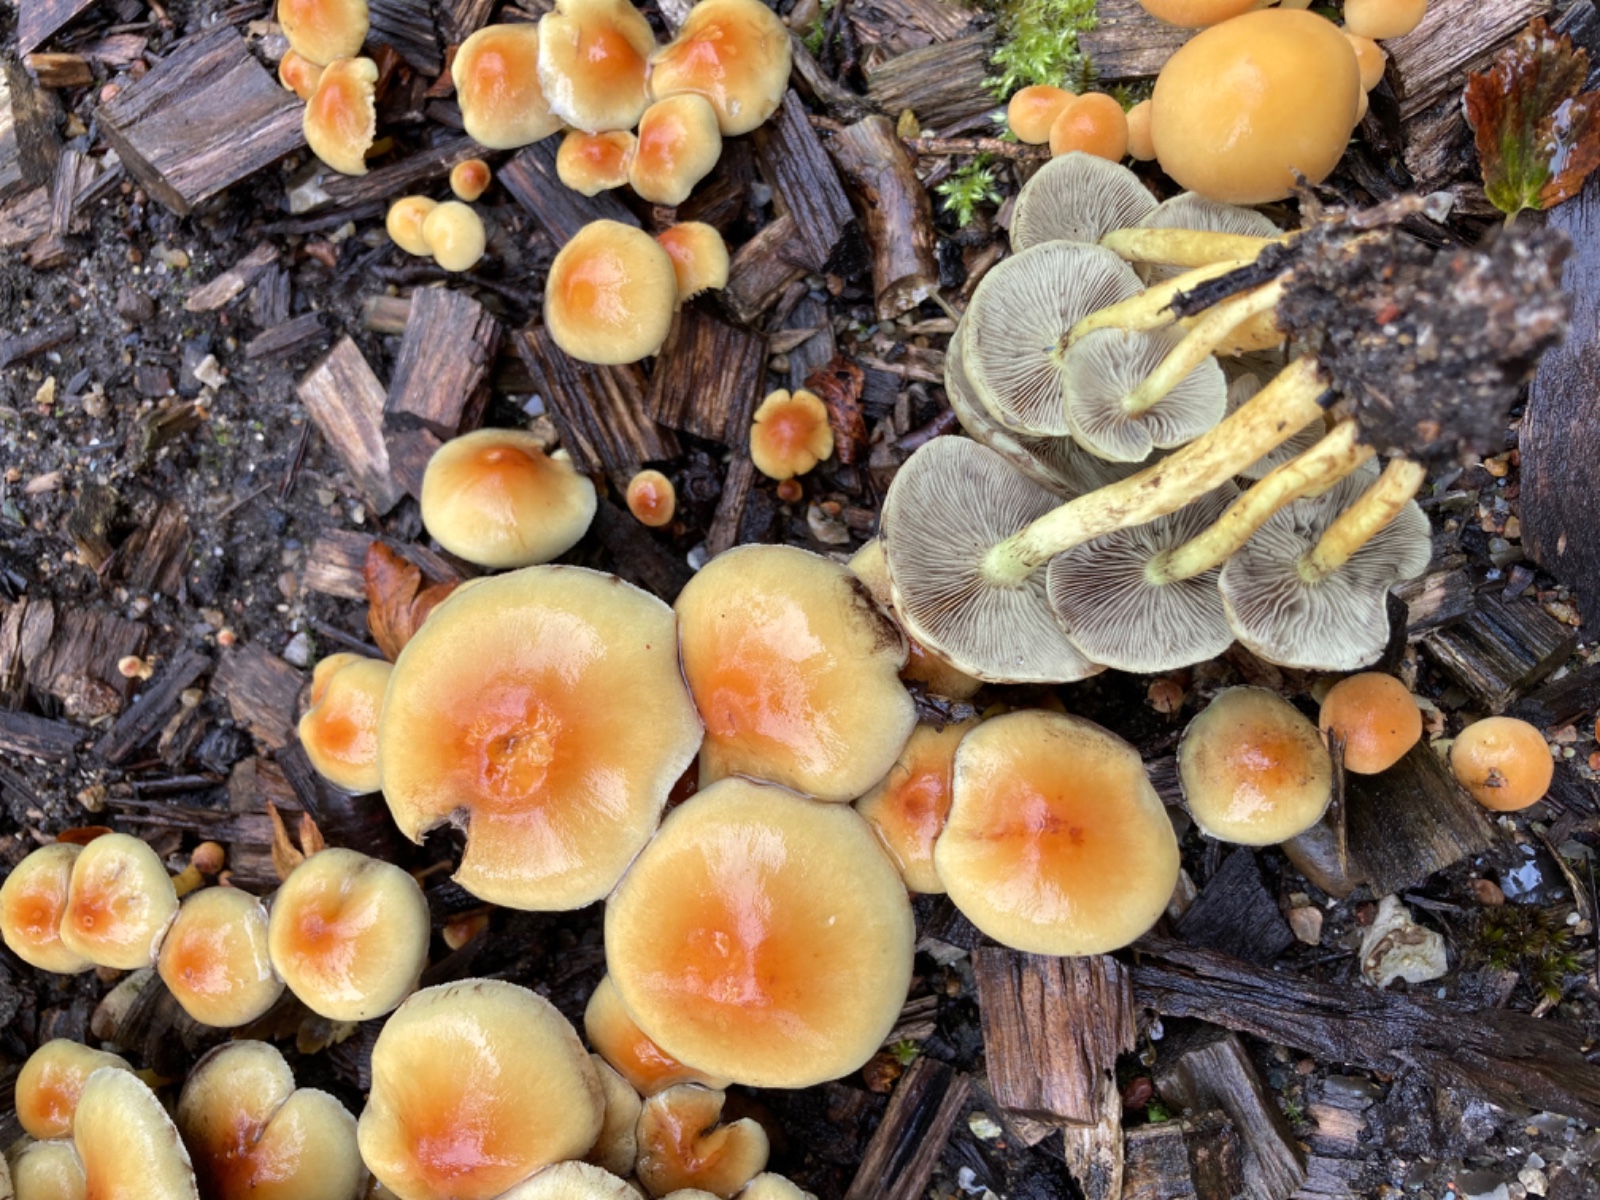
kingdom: Fungi
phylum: Basidiomycota
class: Agaricomycetes
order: Agaricales
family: Strophariaceae
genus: Hypholoma
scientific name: Hypholoma fasciculare
